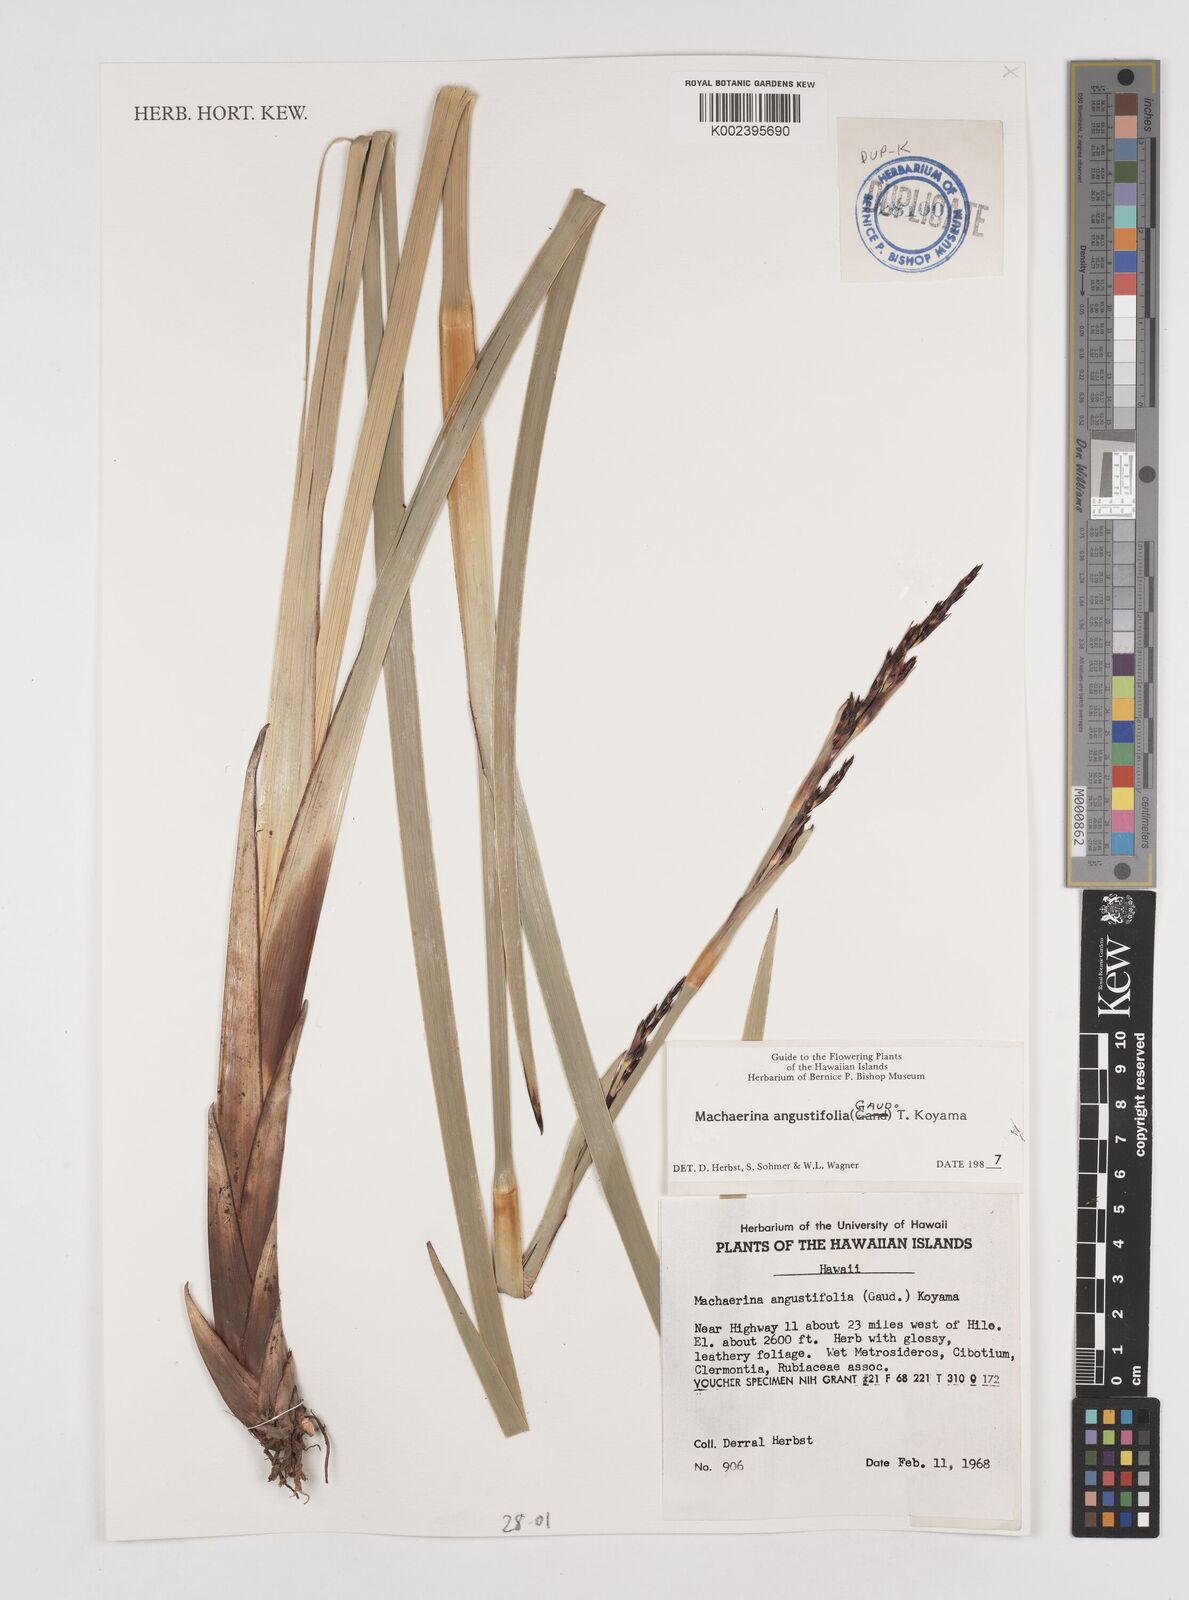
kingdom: Plantae
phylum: Tracheophyta
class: Liliopsida
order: Poales
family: Cyperaceae
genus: Machaerina
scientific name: Machaerina angustifolia
